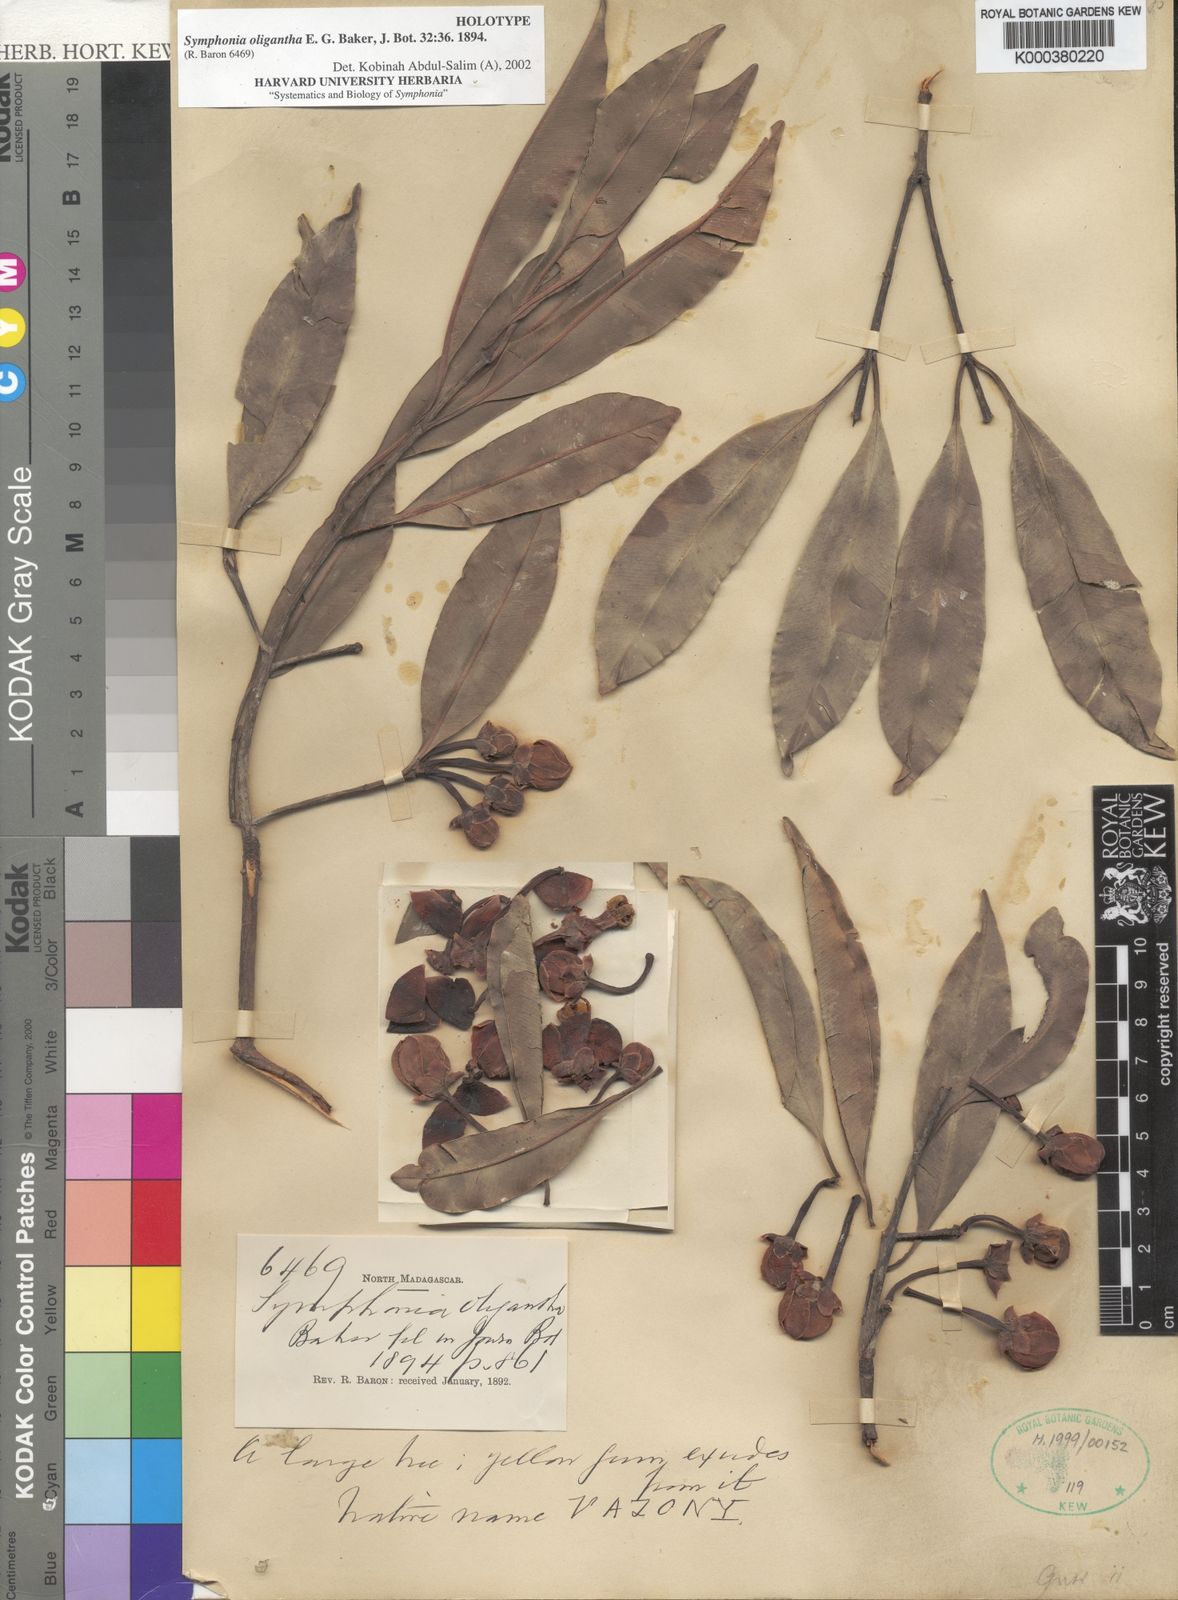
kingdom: Plantae
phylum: Tracheophyta
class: Magnoliopsida
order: Malpighiales
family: Clusiaceae
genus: Symphonia
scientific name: Symphonia oligantha
